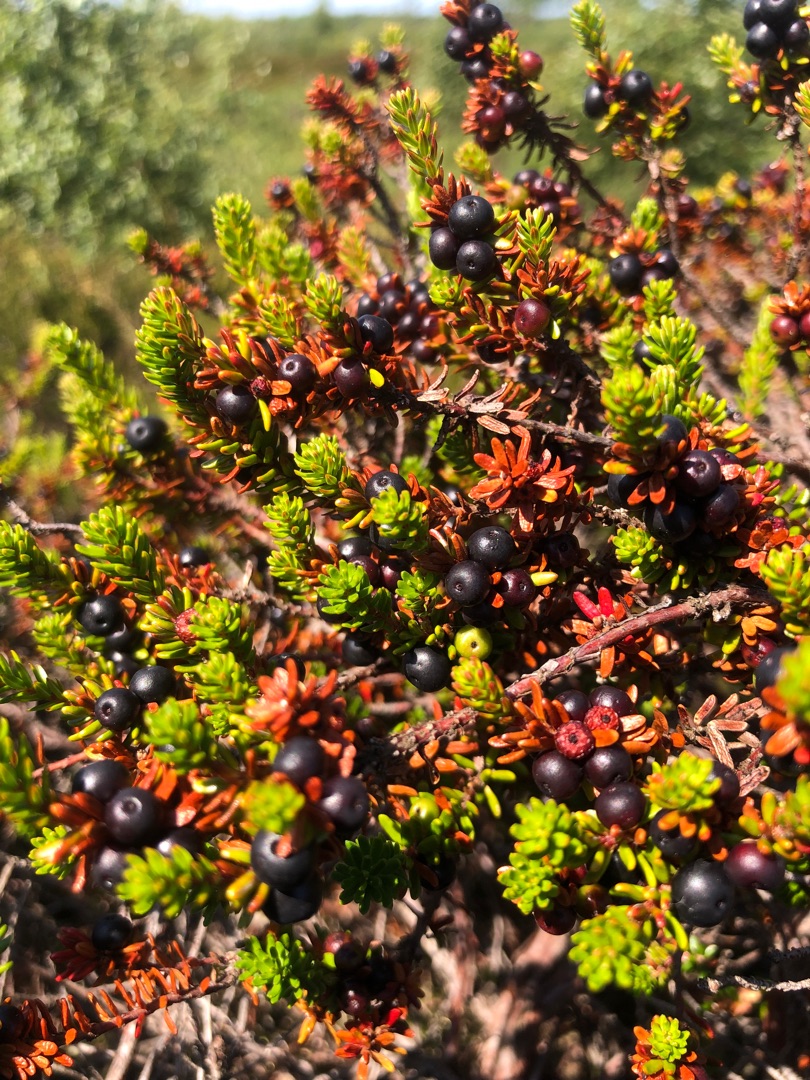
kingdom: Plantae
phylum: Tracheophyta
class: Magnoliopsida
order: Ericales
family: Ericaceae
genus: Empetrum
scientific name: Empetrum nigrum
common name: Revling
